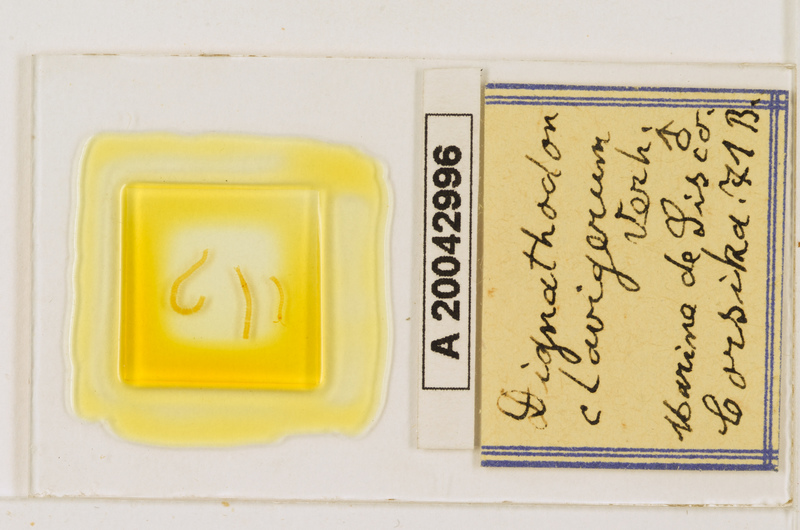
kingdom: Animalia
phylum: Arthropoda
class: Chilopoda
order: Geophilomorpha
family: Dignathodontidae
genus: Dignathodon
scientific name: Dignathodon microcephalus
